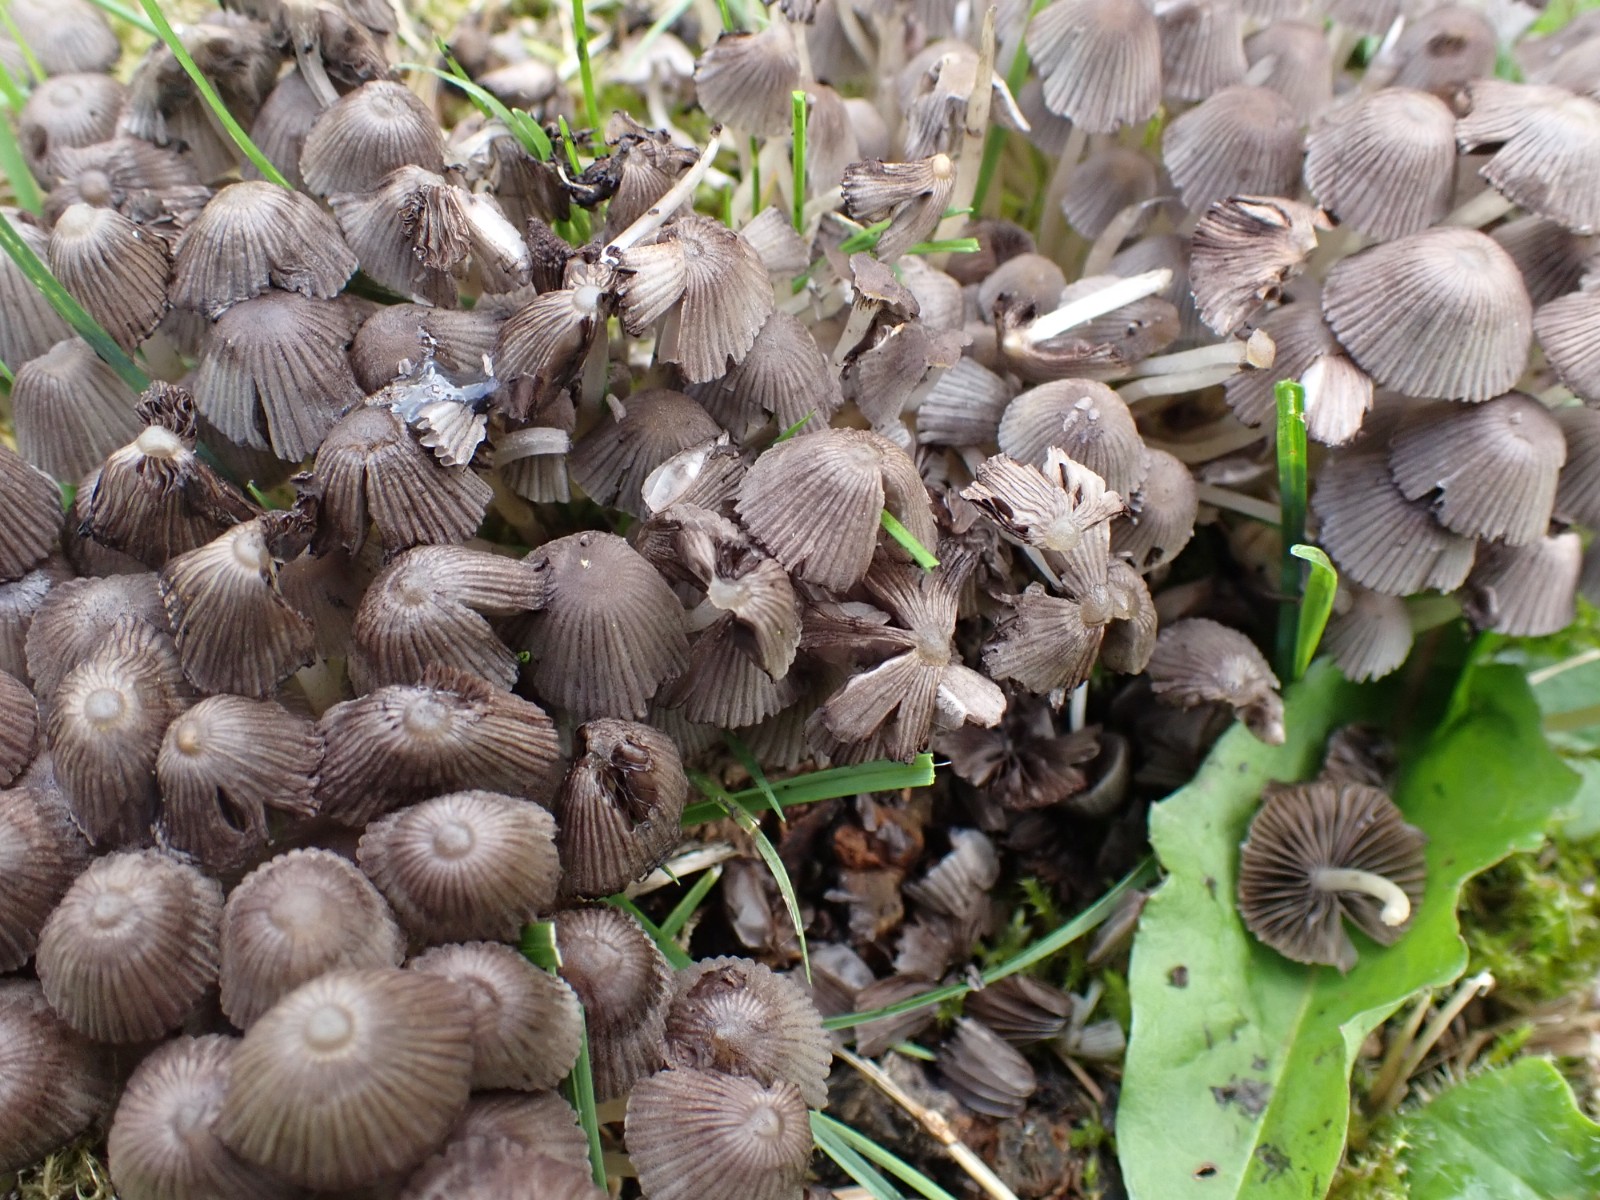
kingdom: Fungi
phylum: Basidiomycota
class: Agaricomycetes
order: Agaricales
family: Psathyrellaceae
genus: Coprinellus
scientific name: Coprinellus disseminatus
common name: bredsået blækhat
